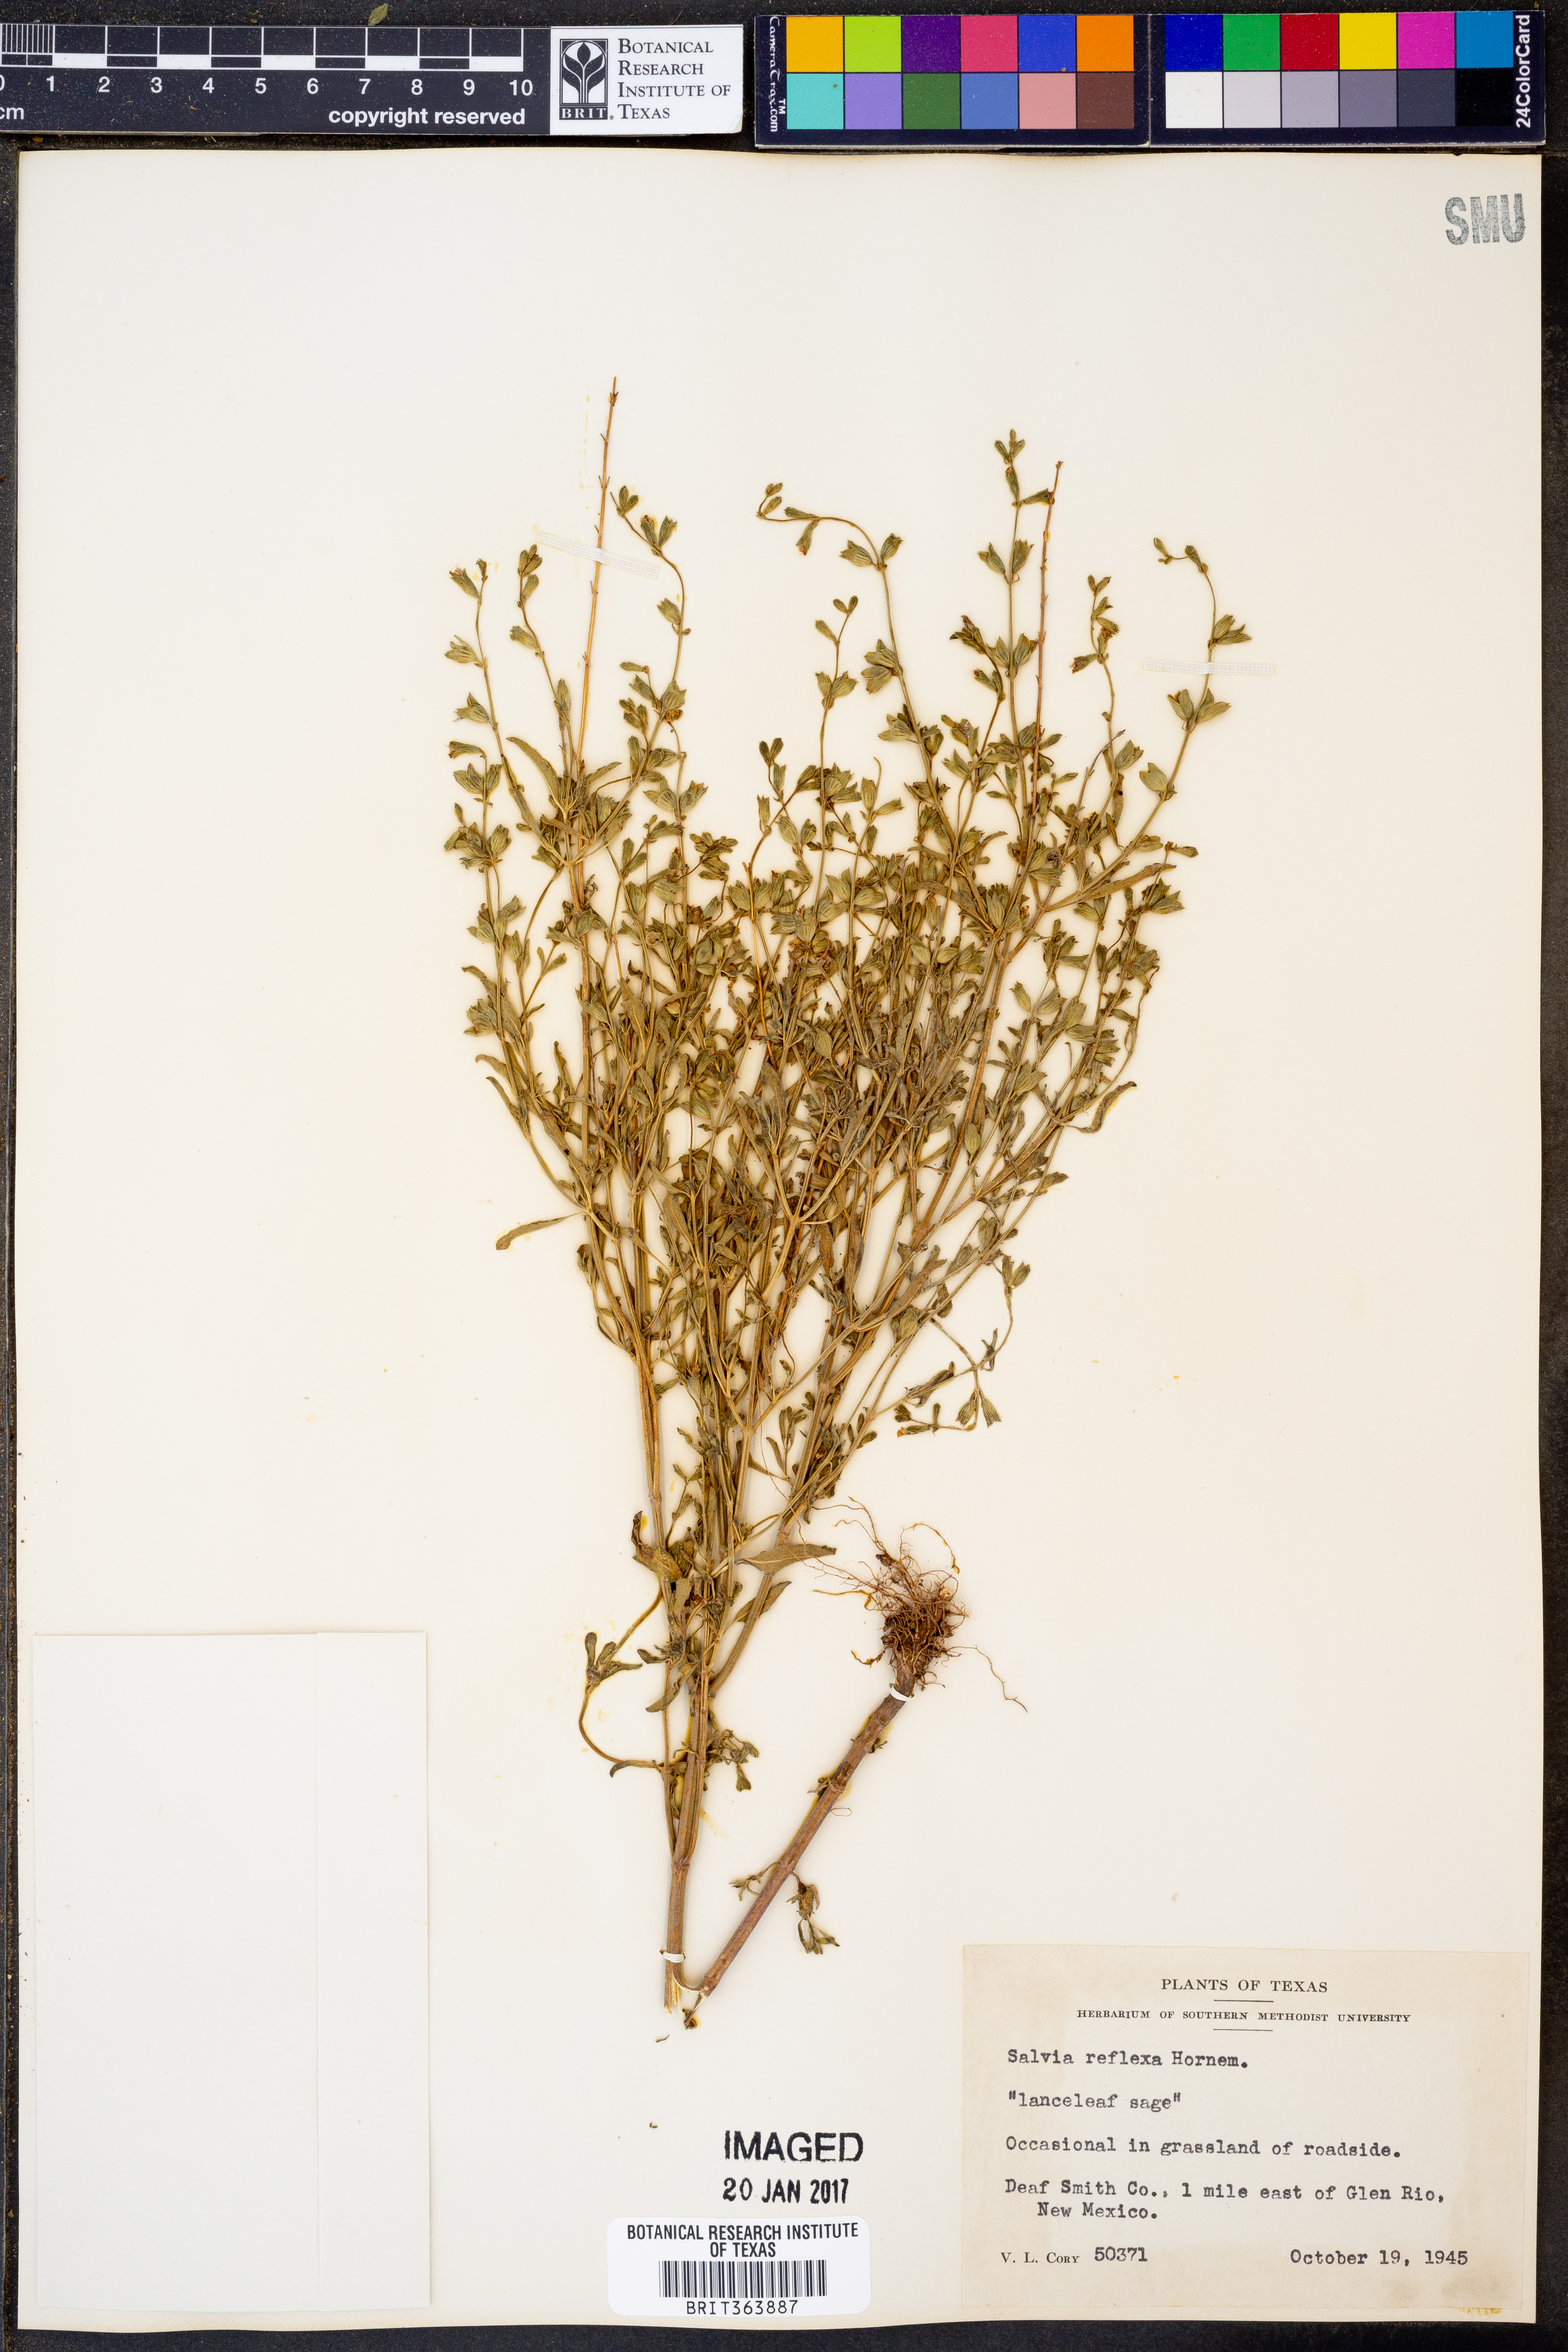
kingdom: Plantae
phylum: Tracheophyta
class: Magnoliopsida
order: Lamiales
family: Lamiaceae
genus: Salvia
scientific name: Salvia reflexa
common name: Mintweed
